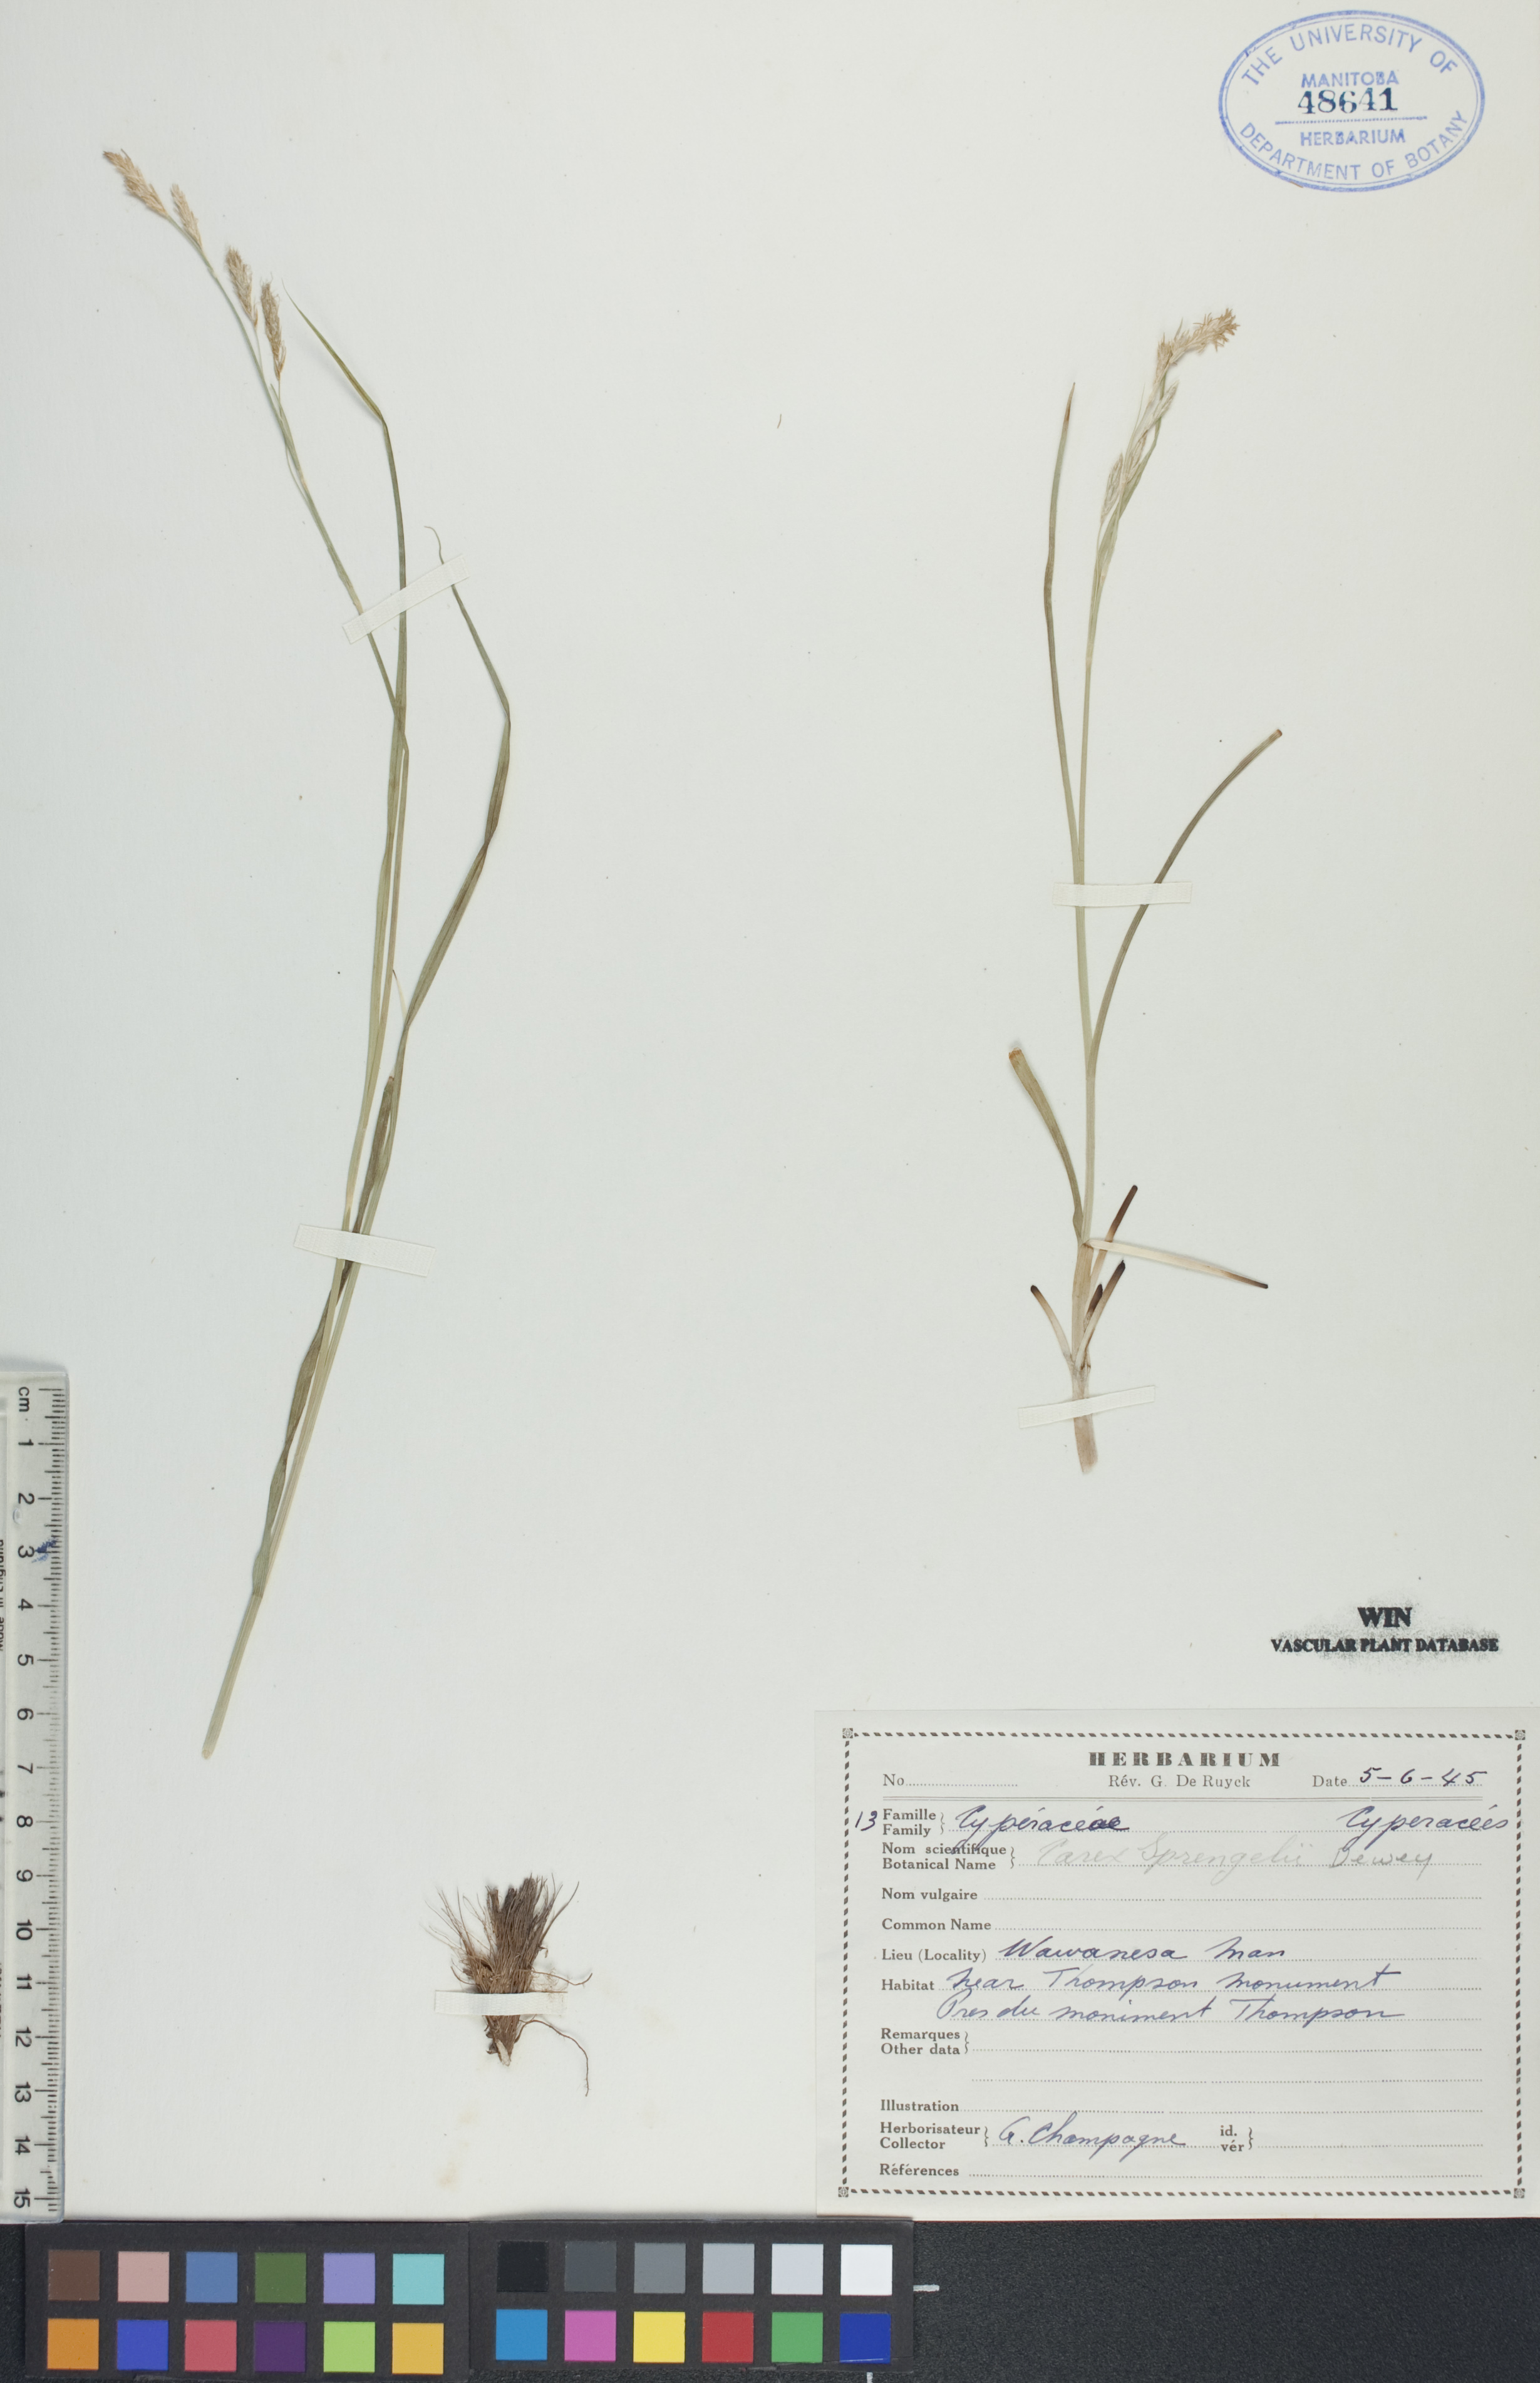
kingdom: Plantae
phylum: Tracheophyta
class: Liliopsida
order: Poales
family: Cyperaceae
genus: Carex
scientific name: Carex sprengelii
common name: Long-beaked sedge
